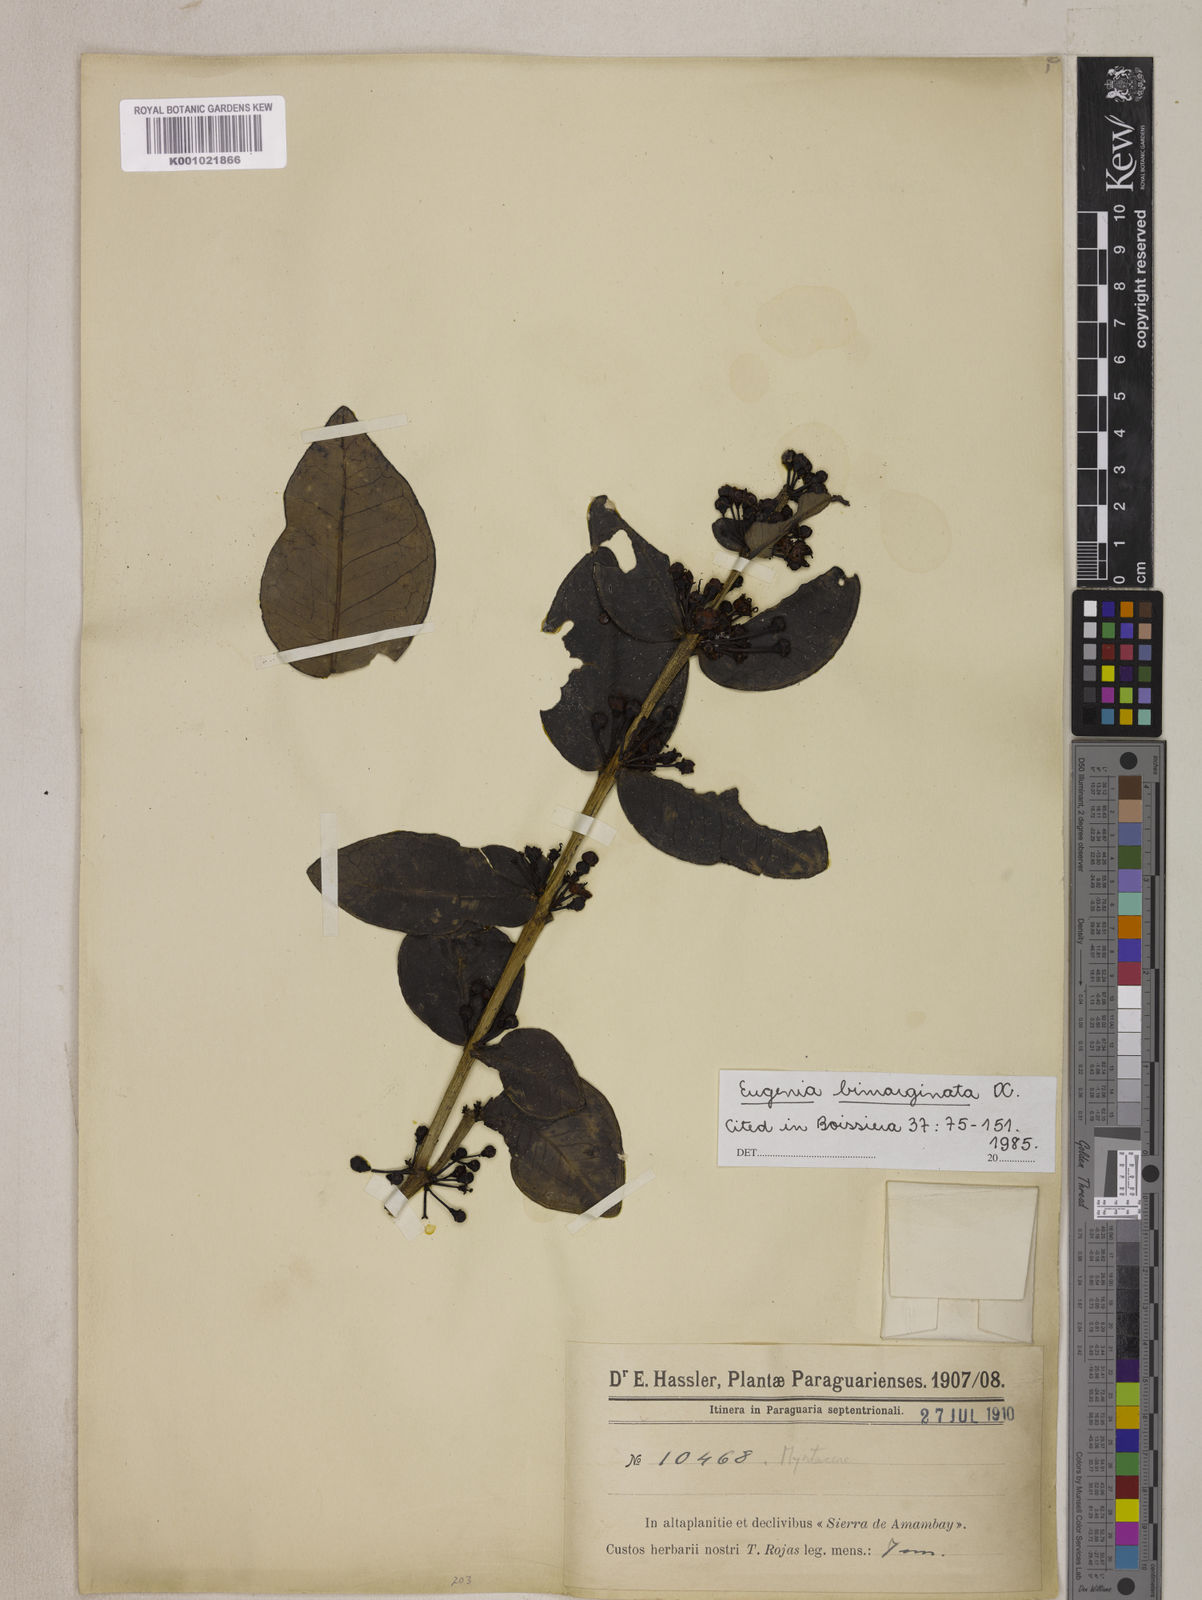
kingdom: Plantae
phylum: Tracheophyta
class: Magnoliopsida
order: Myrtales
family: Myrtaceae
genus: Eugenia
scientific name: Eugenia bimarginata
